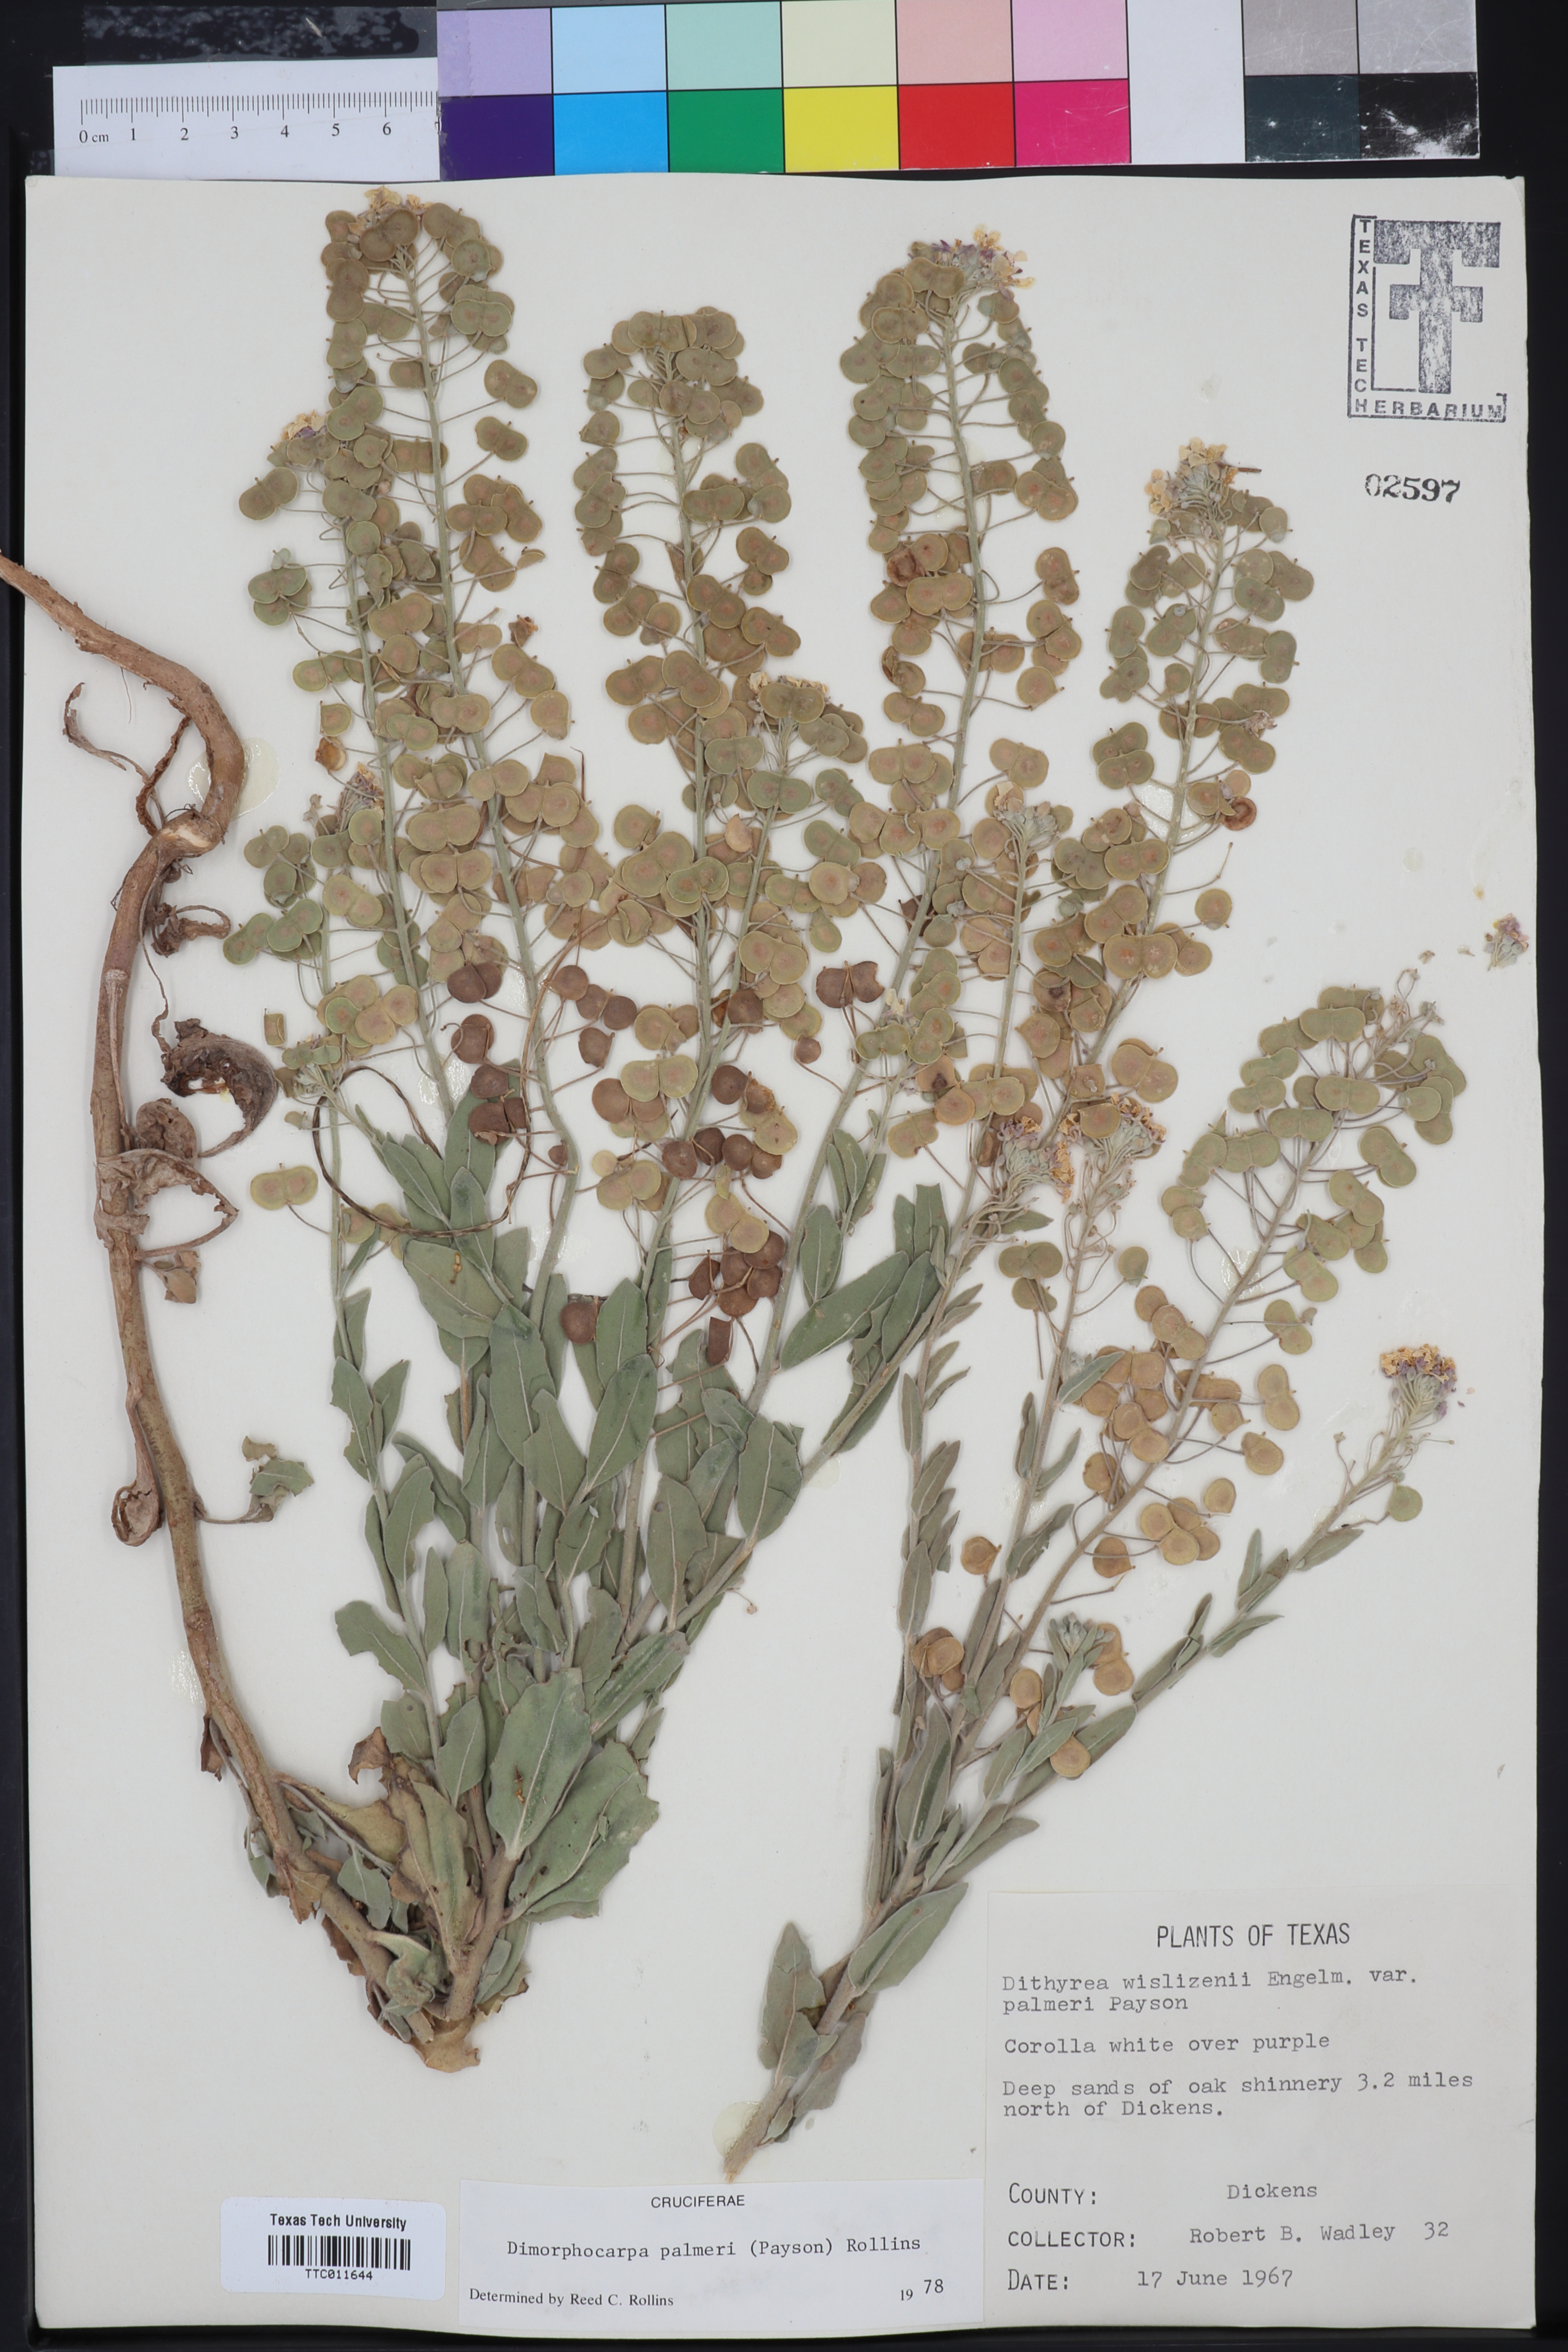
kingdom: Plantae
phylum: Tracheophyta
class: Magnoliopsida
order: Brassicales
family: Brassicaceae
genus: Dimorphocarpa
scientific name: Dimorphocarpa candicans
